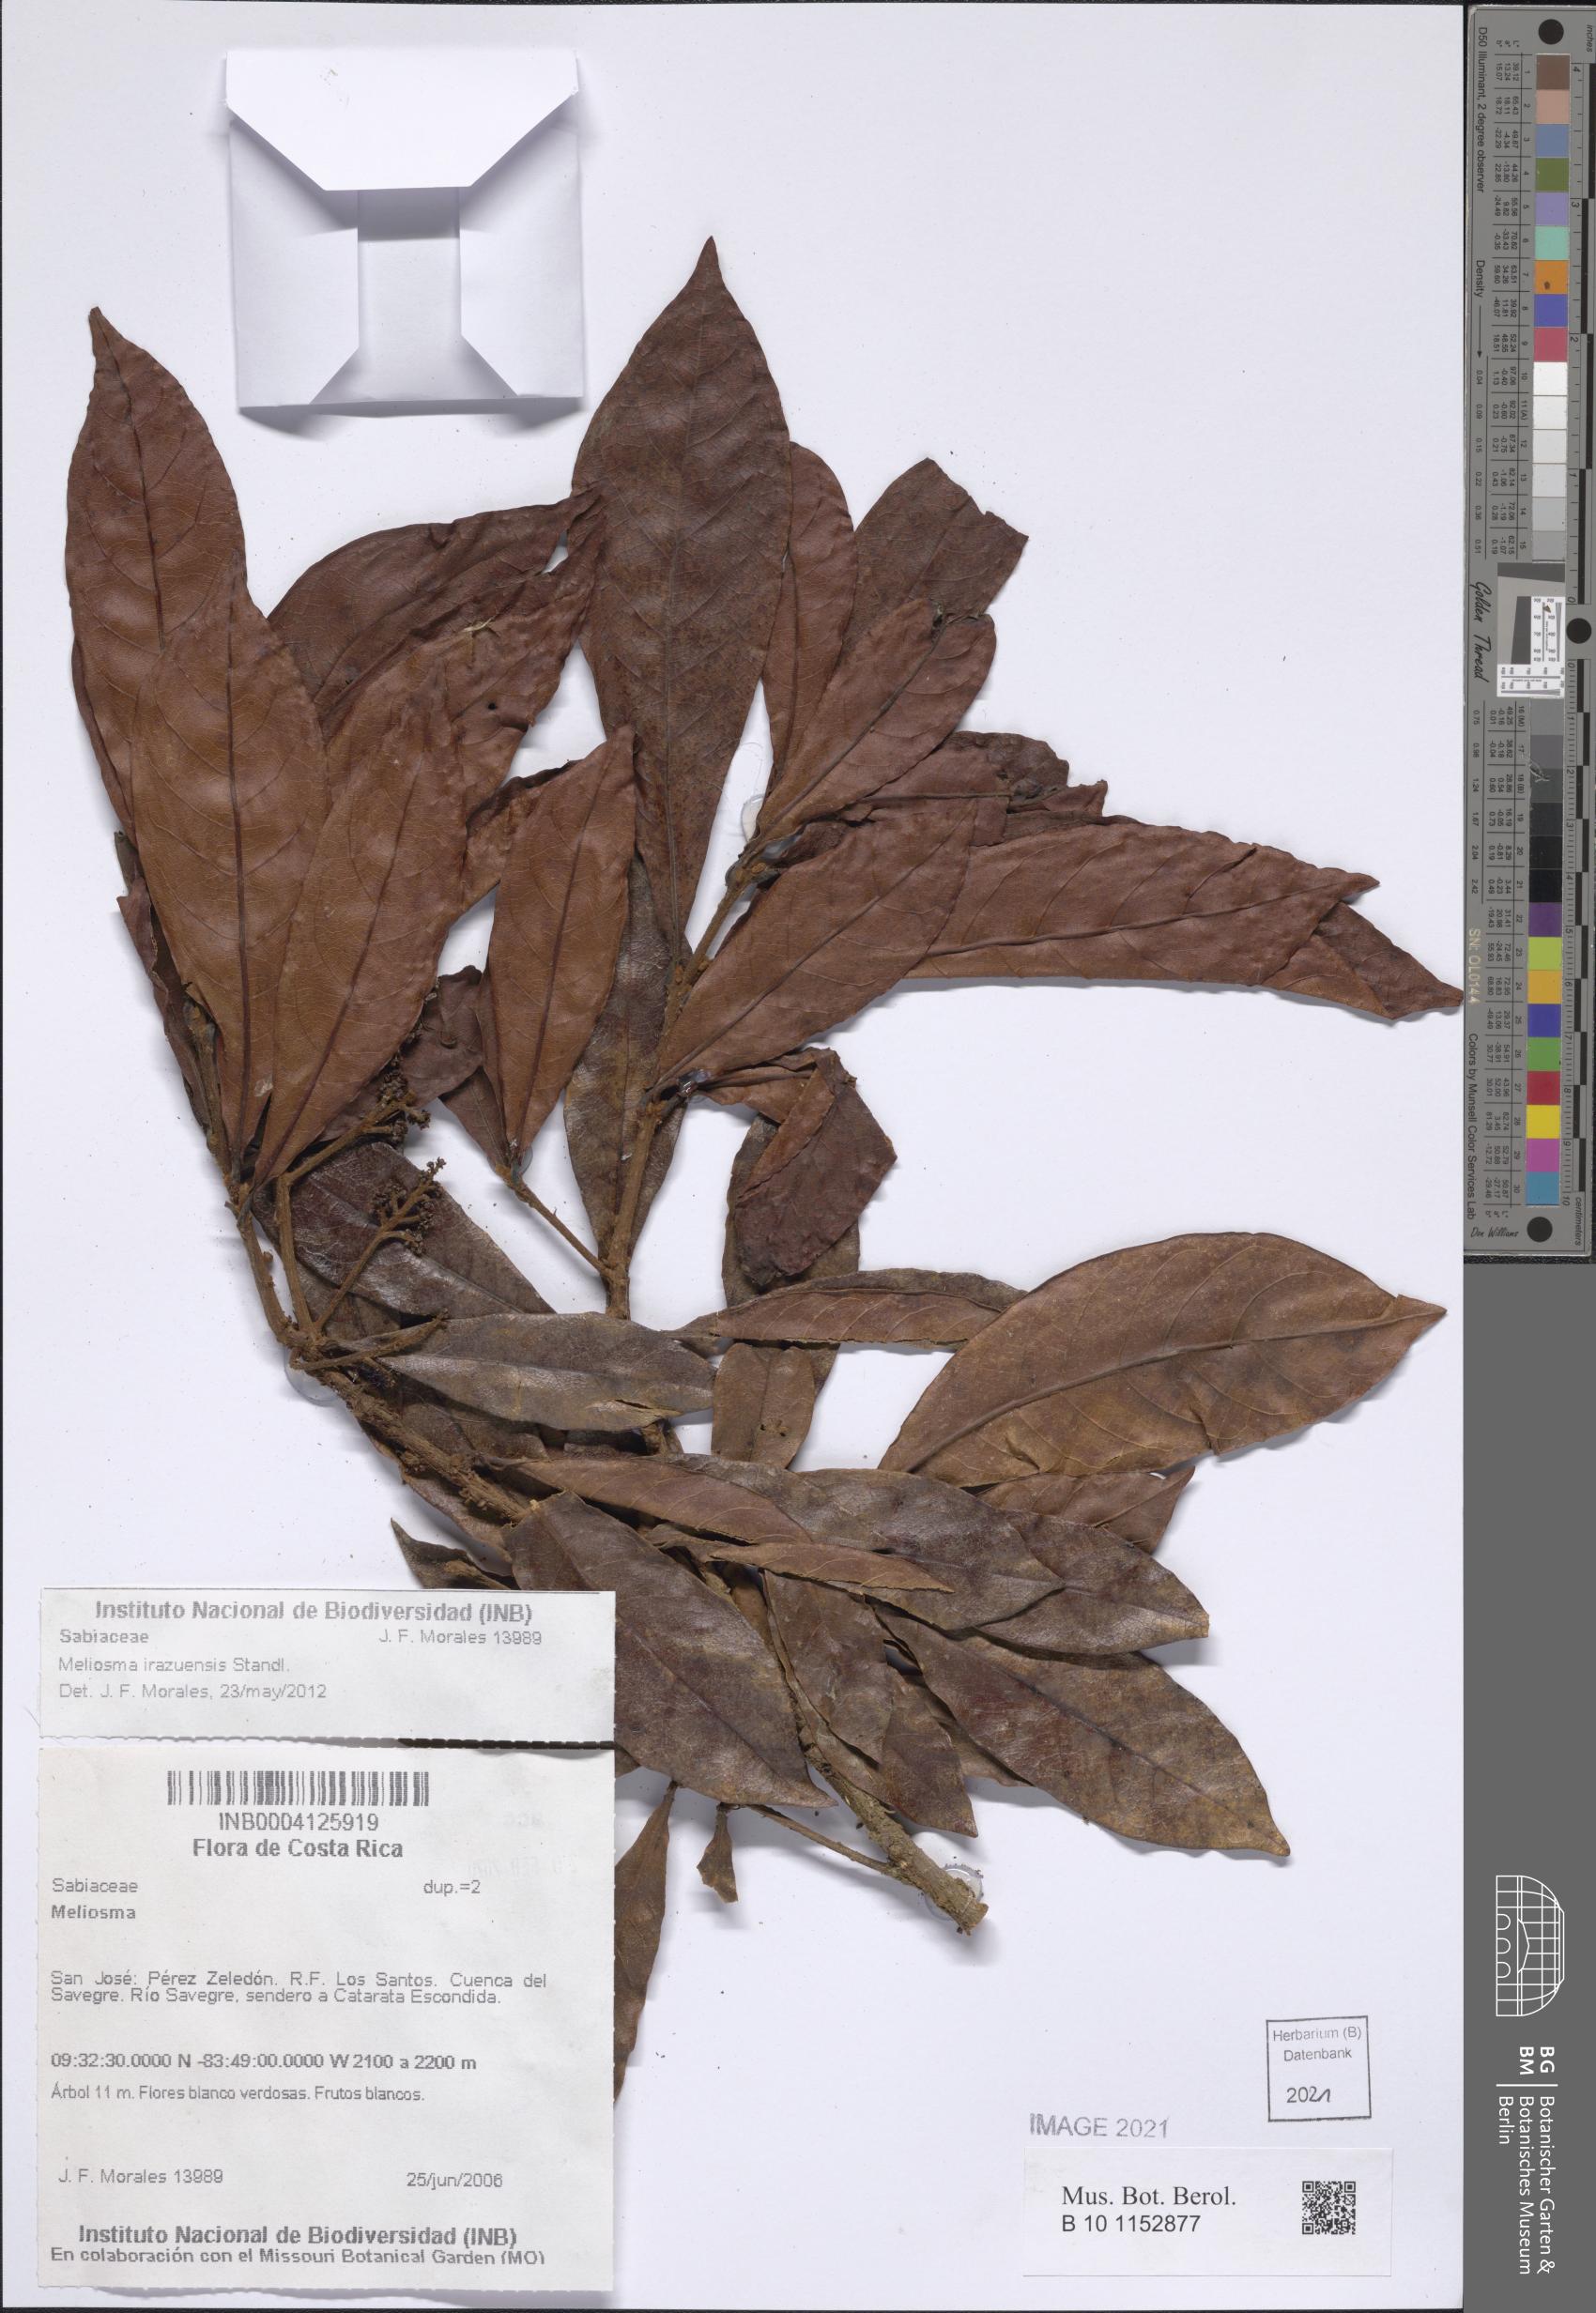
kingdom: Plantae
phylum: Tracheophyta
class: Magnoliopsida
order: Proteales
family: Sabiaceae
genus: Meliosma
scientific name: Meliosma irazuensis
